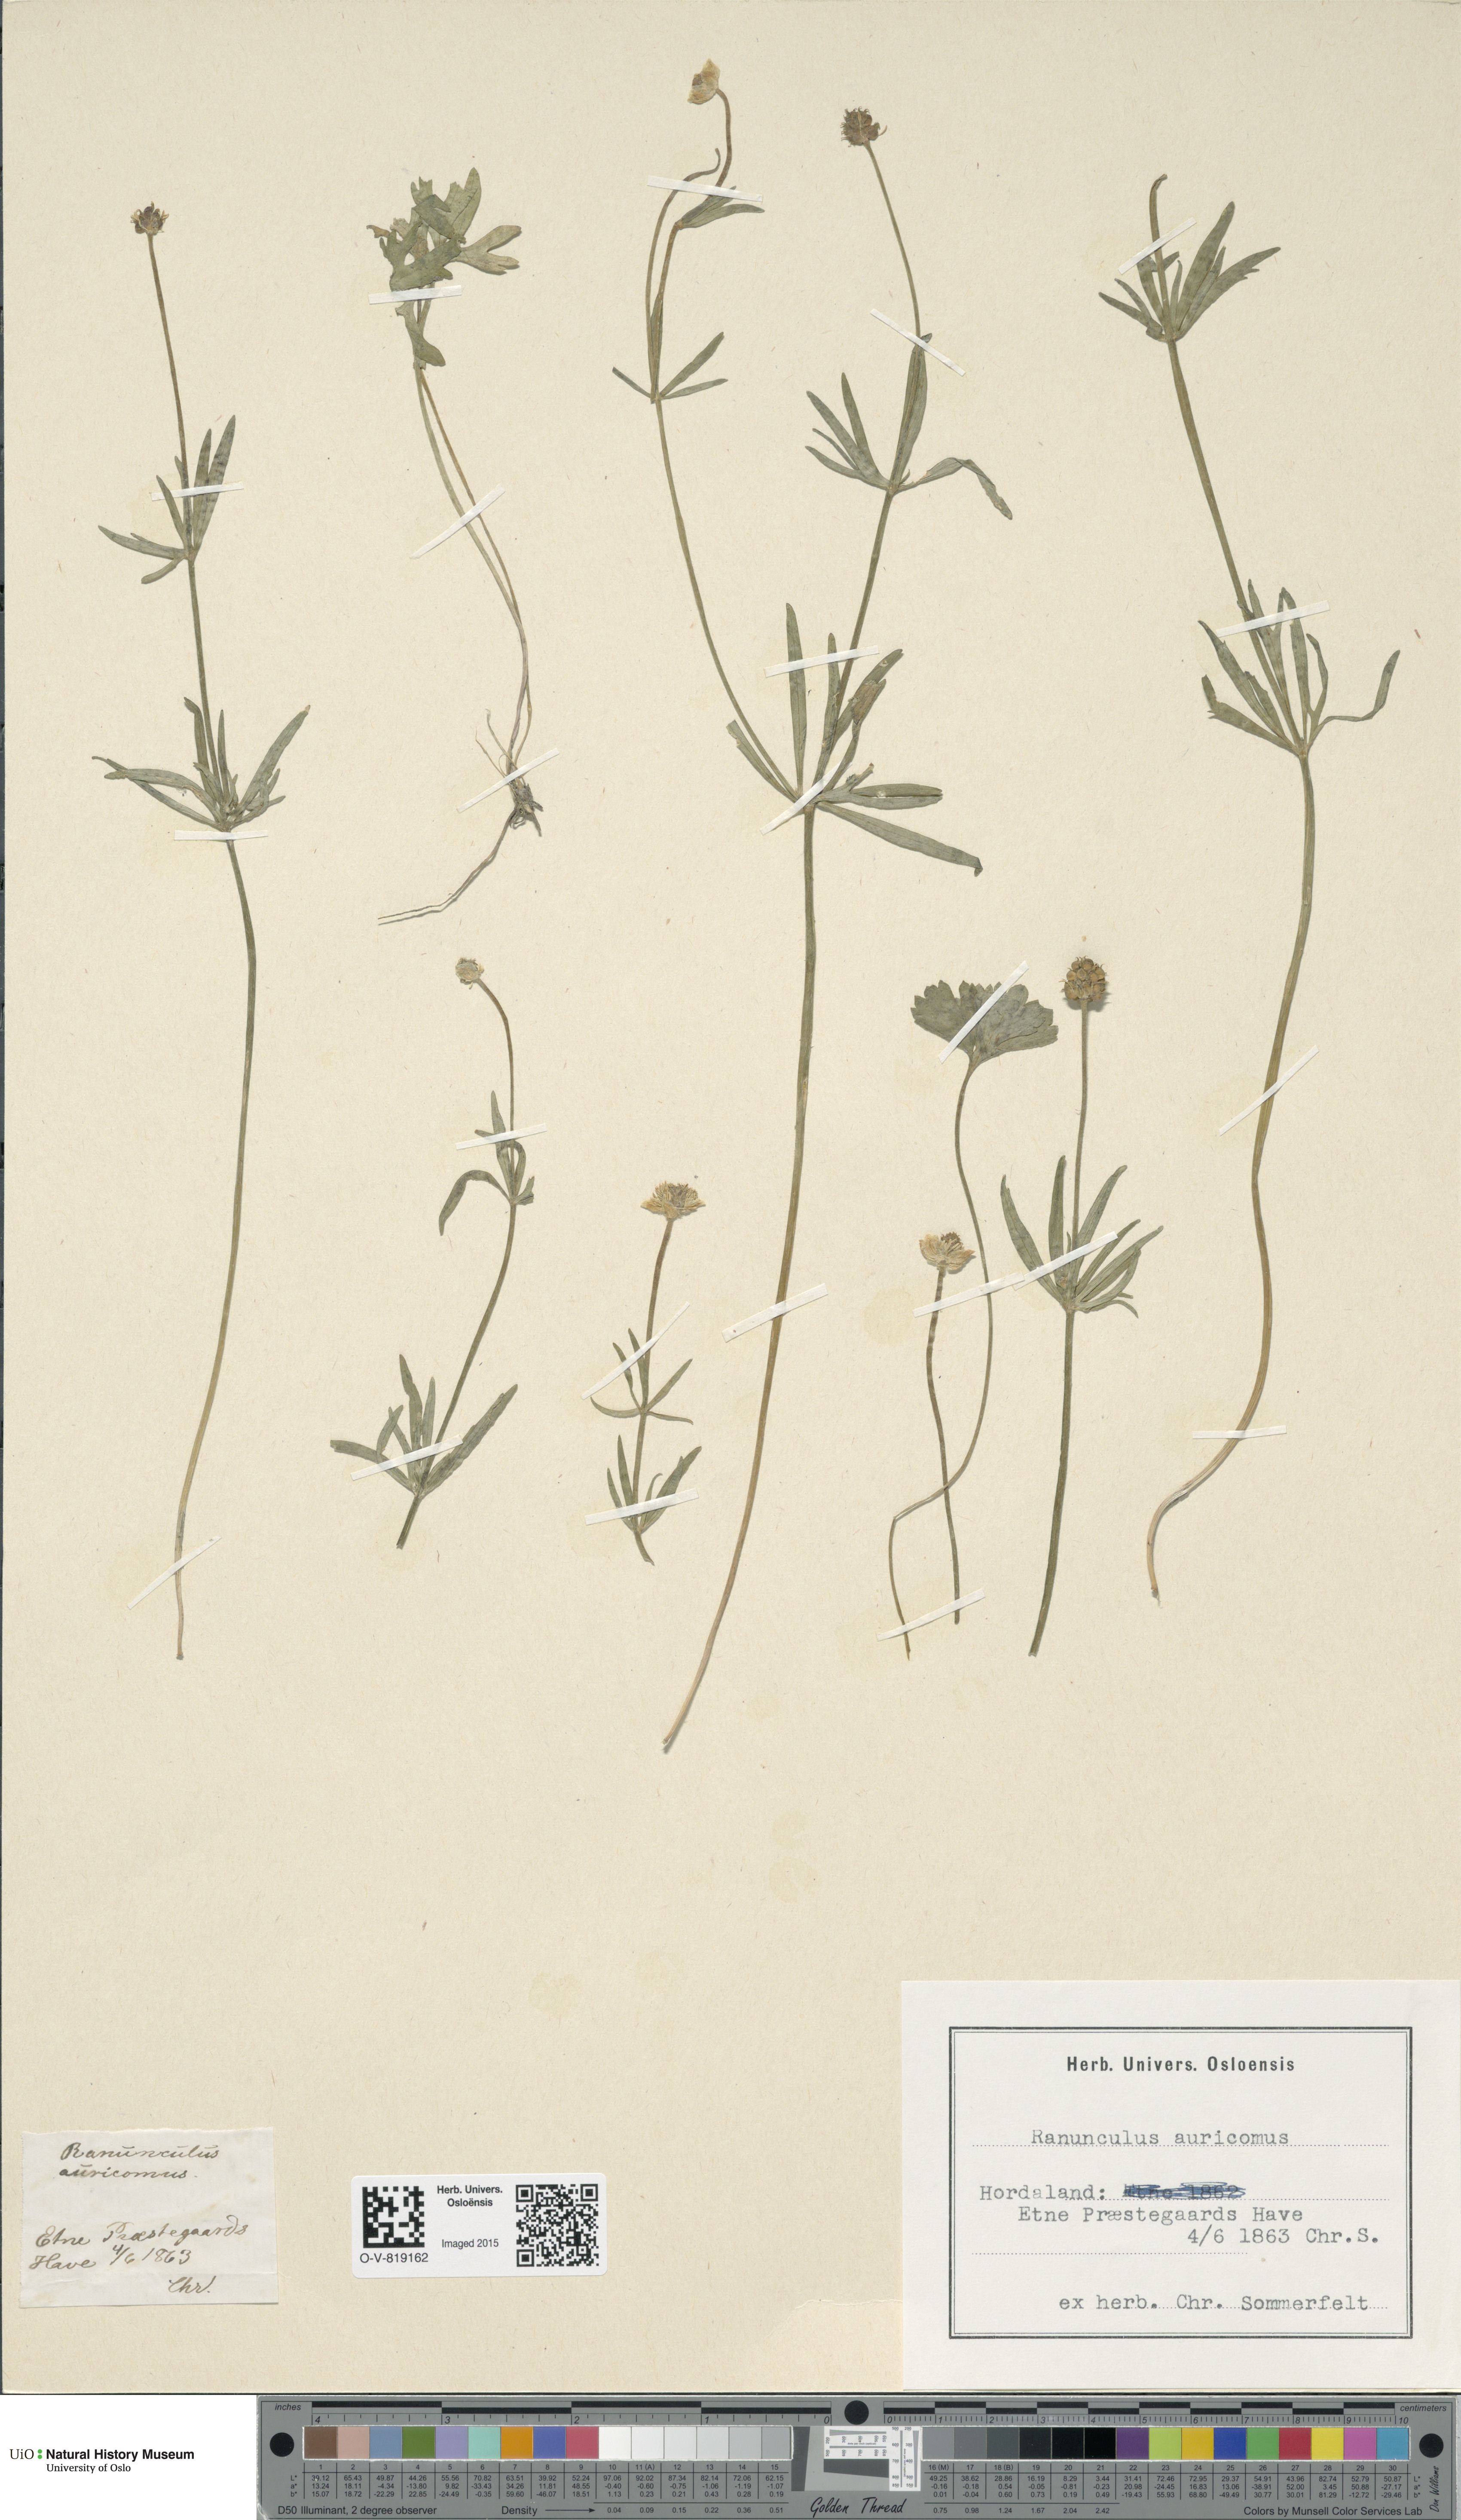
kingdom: Plantae
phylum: Tracheophyta
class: Magnoliopsida
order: Ranunculales
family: Ranunculaceae
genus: Ranunculus
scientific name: Ranunculus auricomus
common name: Goldilocks buttercup
